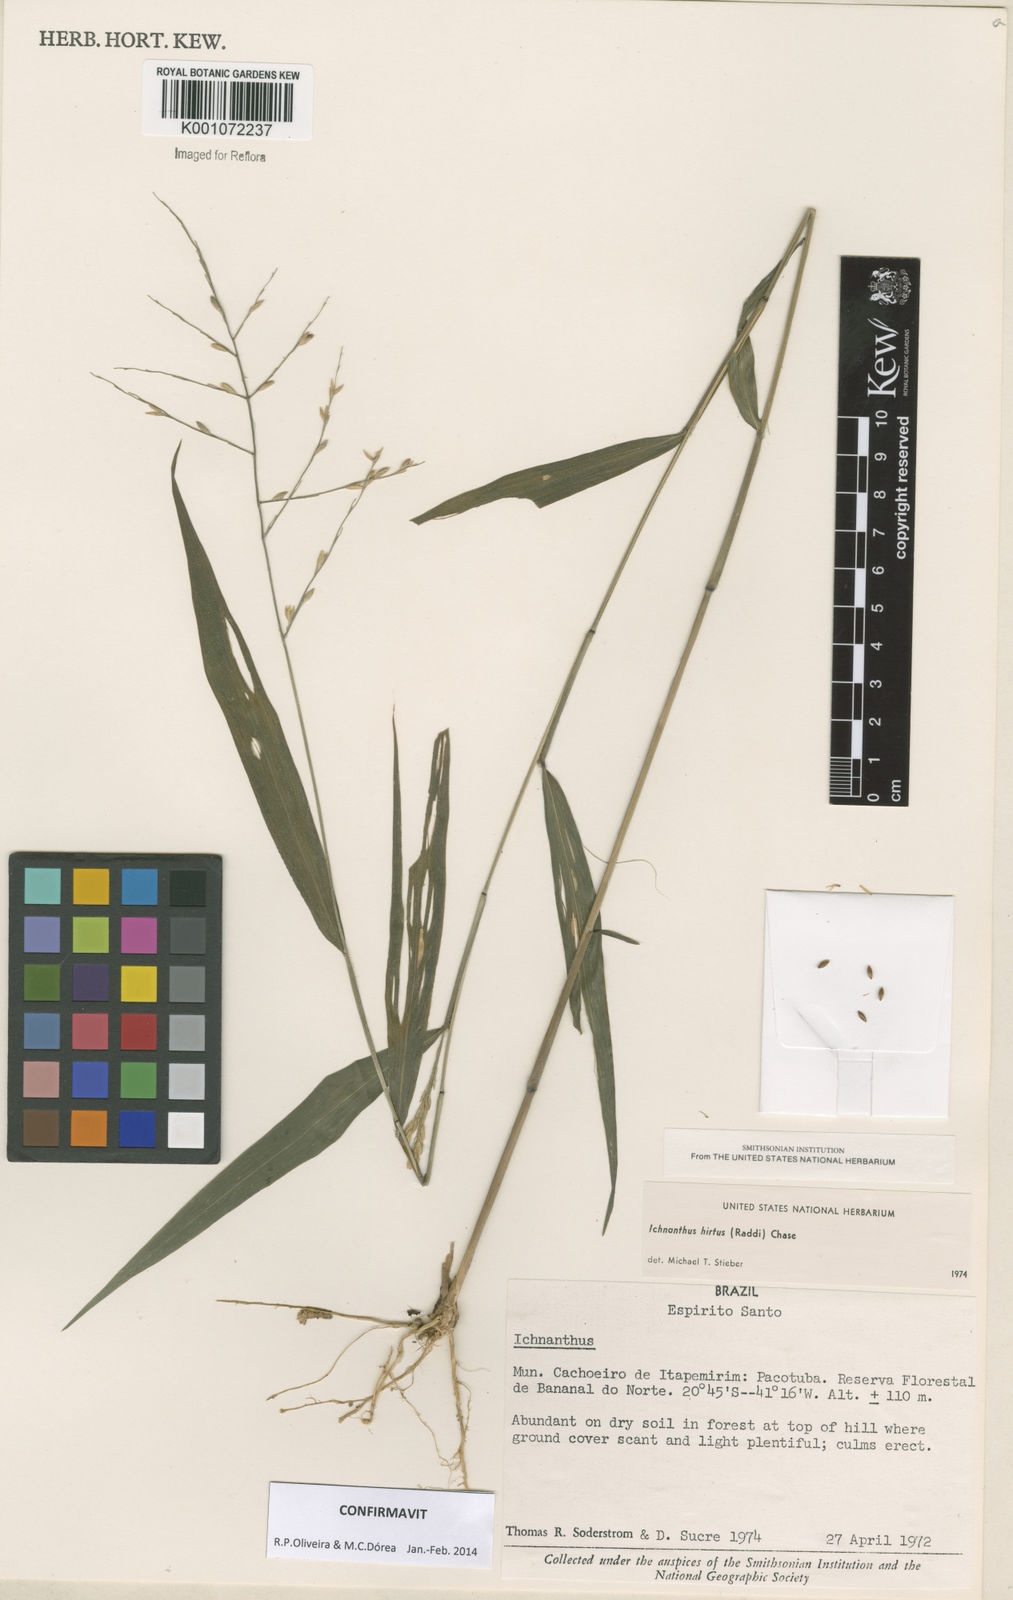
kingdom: Plantae
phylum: Tracheophyta
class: Liliopsida
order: Poales
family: Poaceae
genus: Ichnanthus
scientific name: Ichnanthus hirtus
